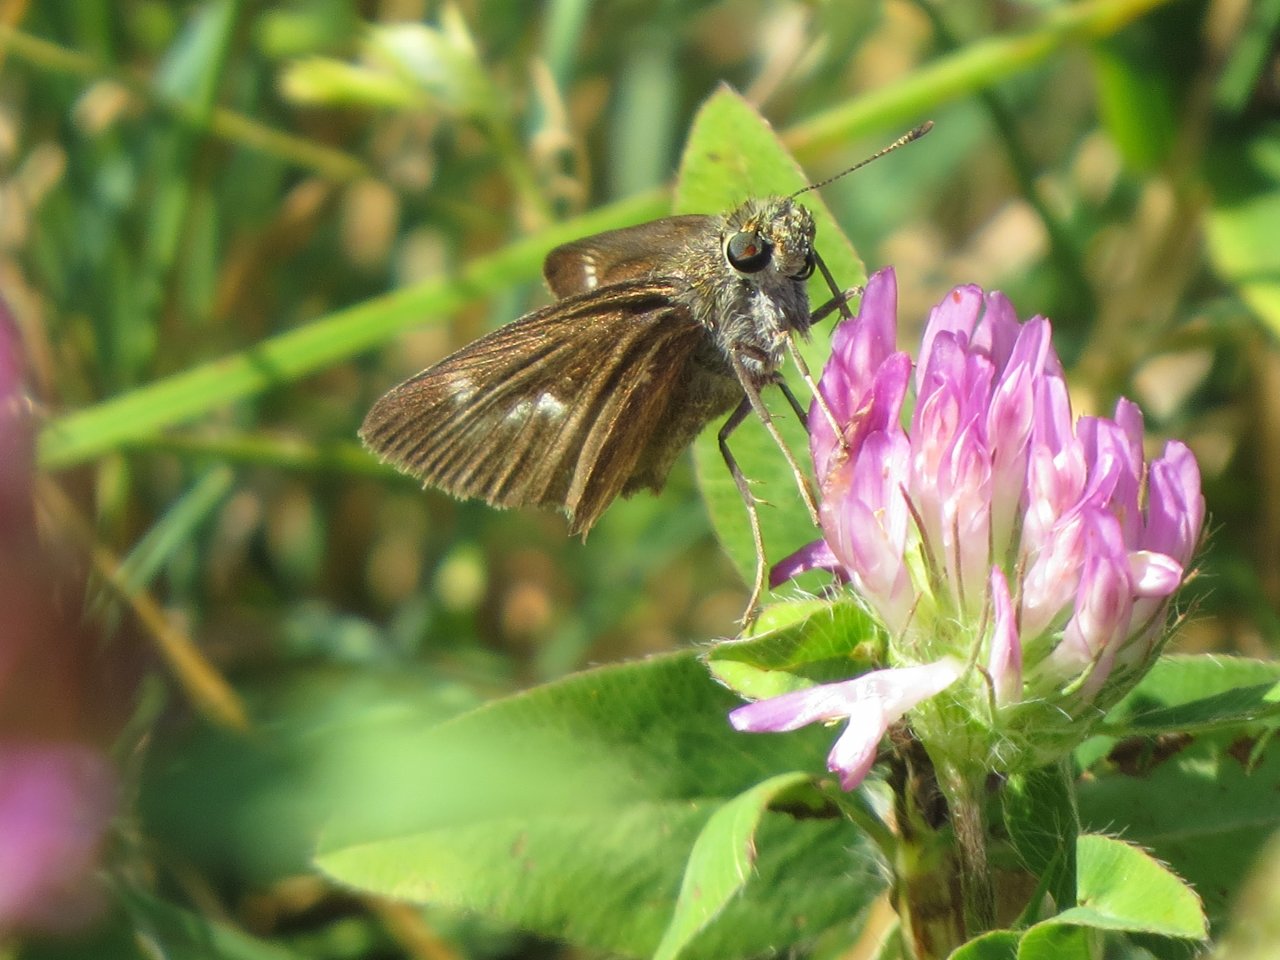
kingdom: Animalia
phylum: Arthropoda
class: Insecta
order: Lepidoptera
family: Hesperiidae
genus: Vernia
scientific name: Vernia verna
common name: Little Glassywing
